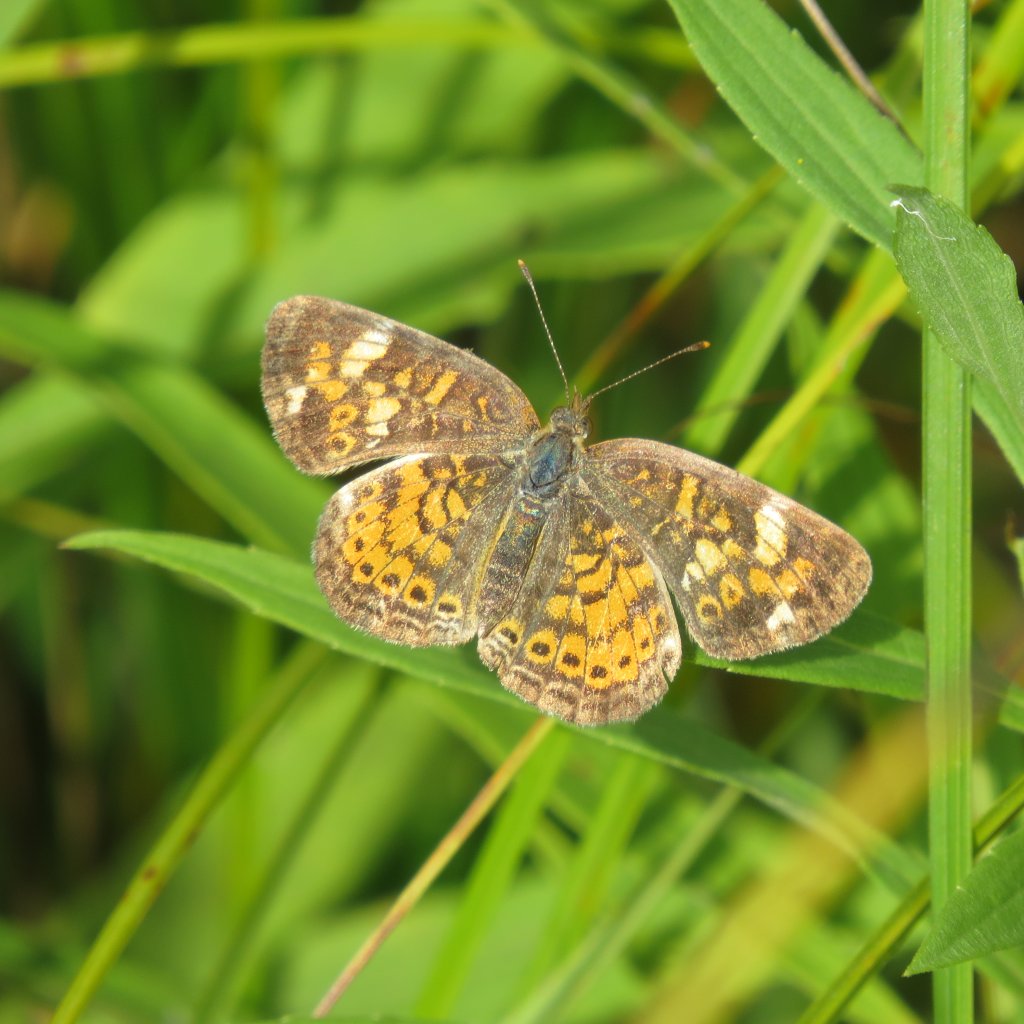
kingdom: Animalia
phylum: Arthropoda
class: Insecta
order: Lepidoptera
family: Nymphalidae
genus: Phyciodes
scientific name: Phyciodes tharos
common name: Pearl Crescent
